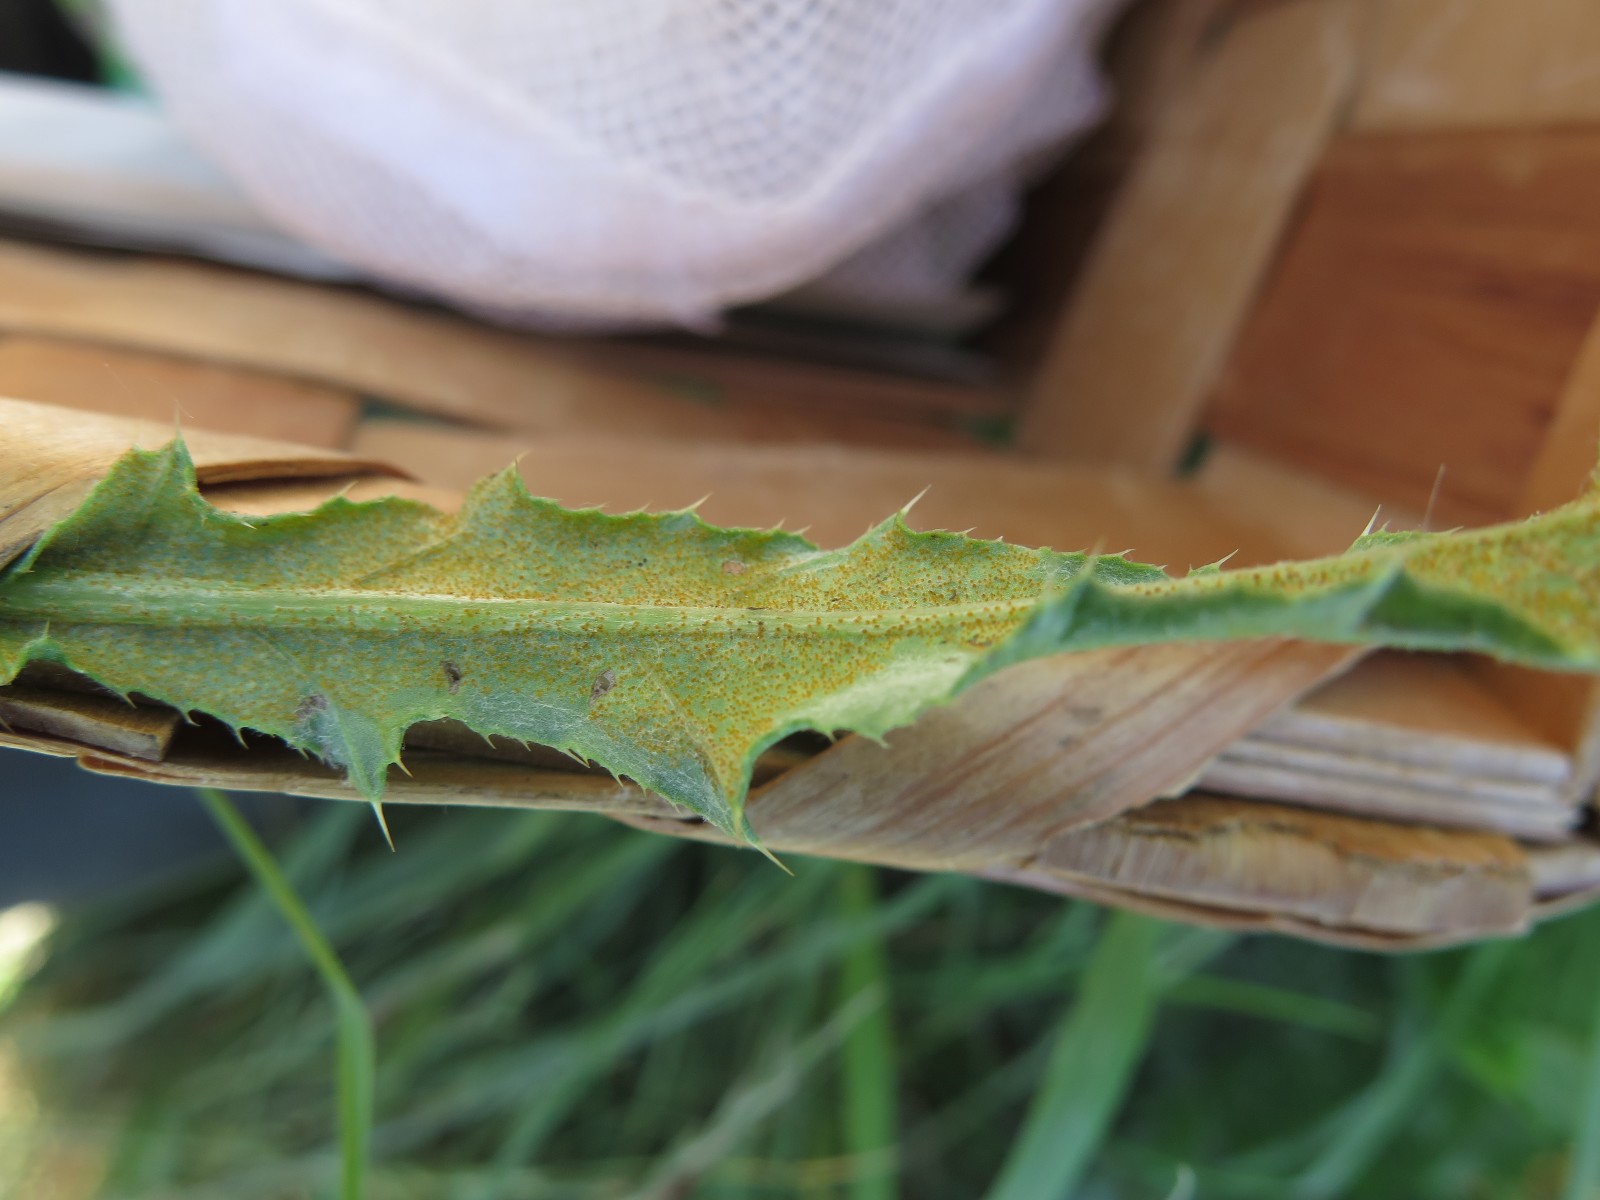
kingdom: Fungi
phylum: Basidiomycota
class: Pucciniomycetes
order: Pucciniales
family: Pucciniaceae
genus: Puccinia
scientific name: Puccinia suaveolens
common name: tidsel-tvecellerust
